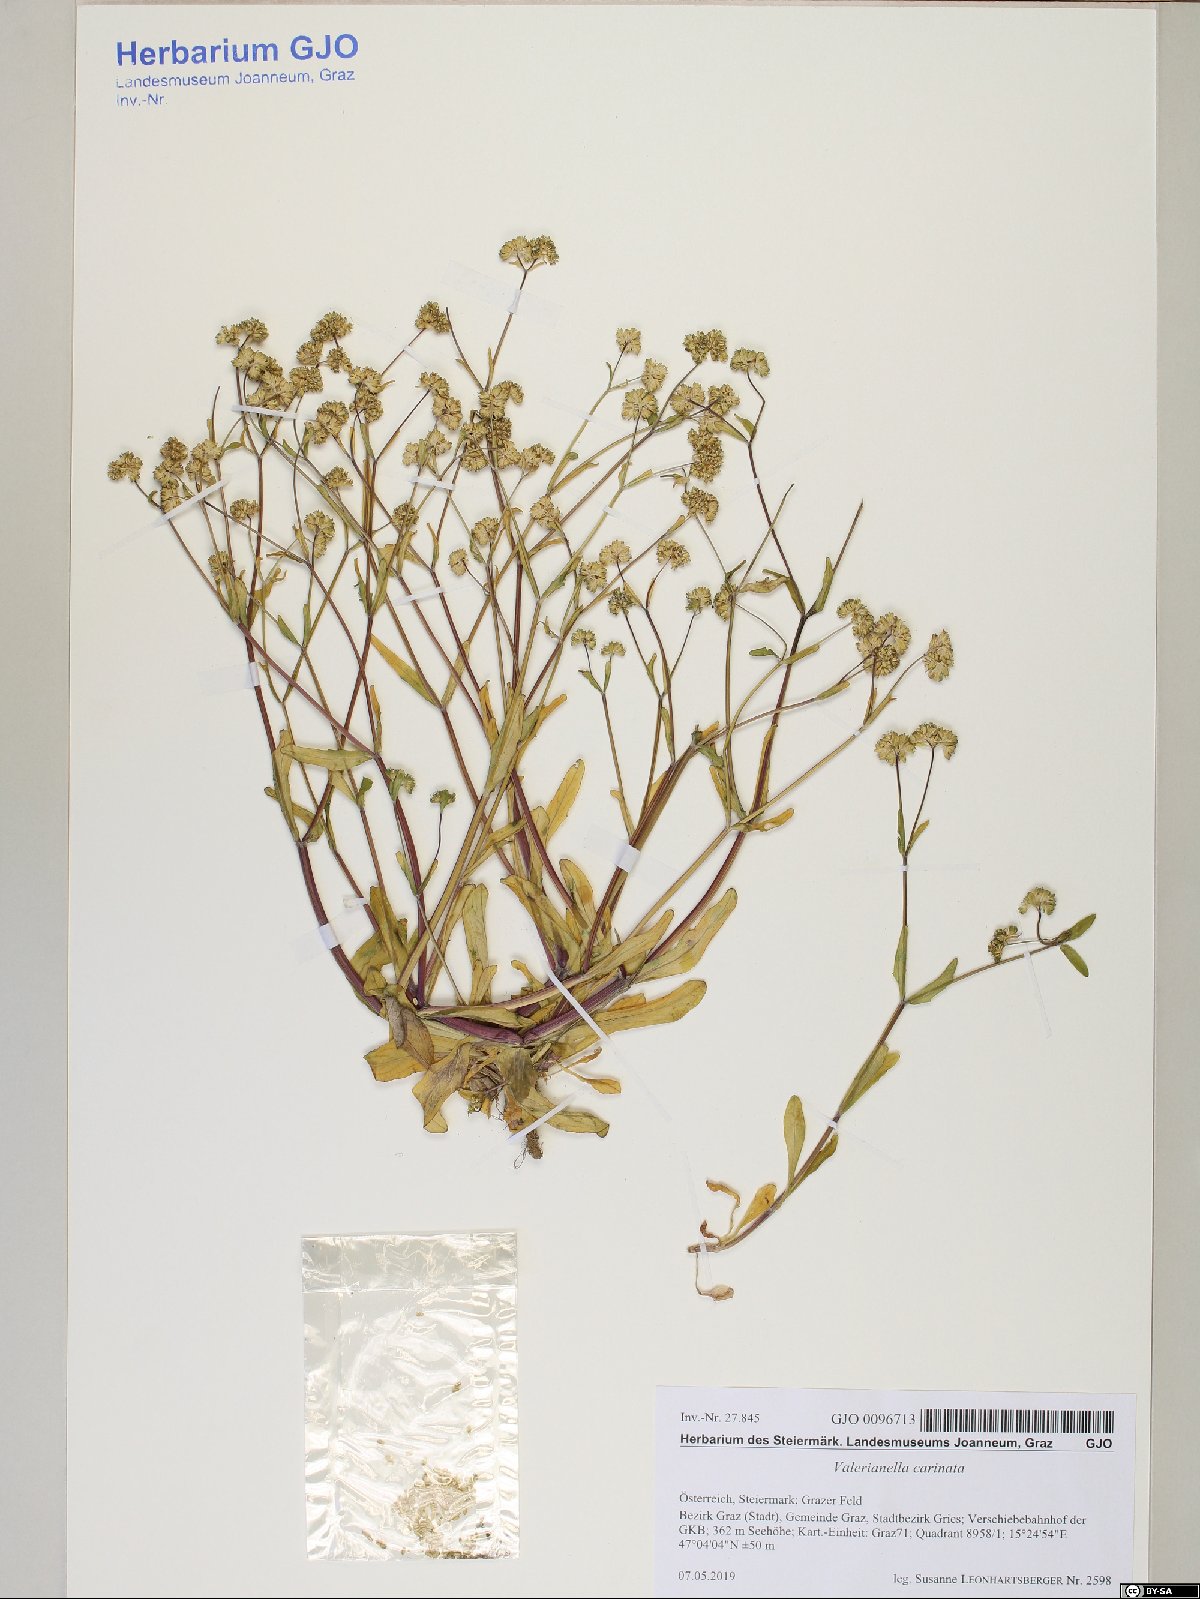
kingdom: Plantae
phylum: Tracheophyta
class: Magnoliopsida
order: Dipsacales
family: Caprifoliaceae
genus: Valerianella
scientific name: Valerianella carinata
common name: Keeled-fruited cornsalad
